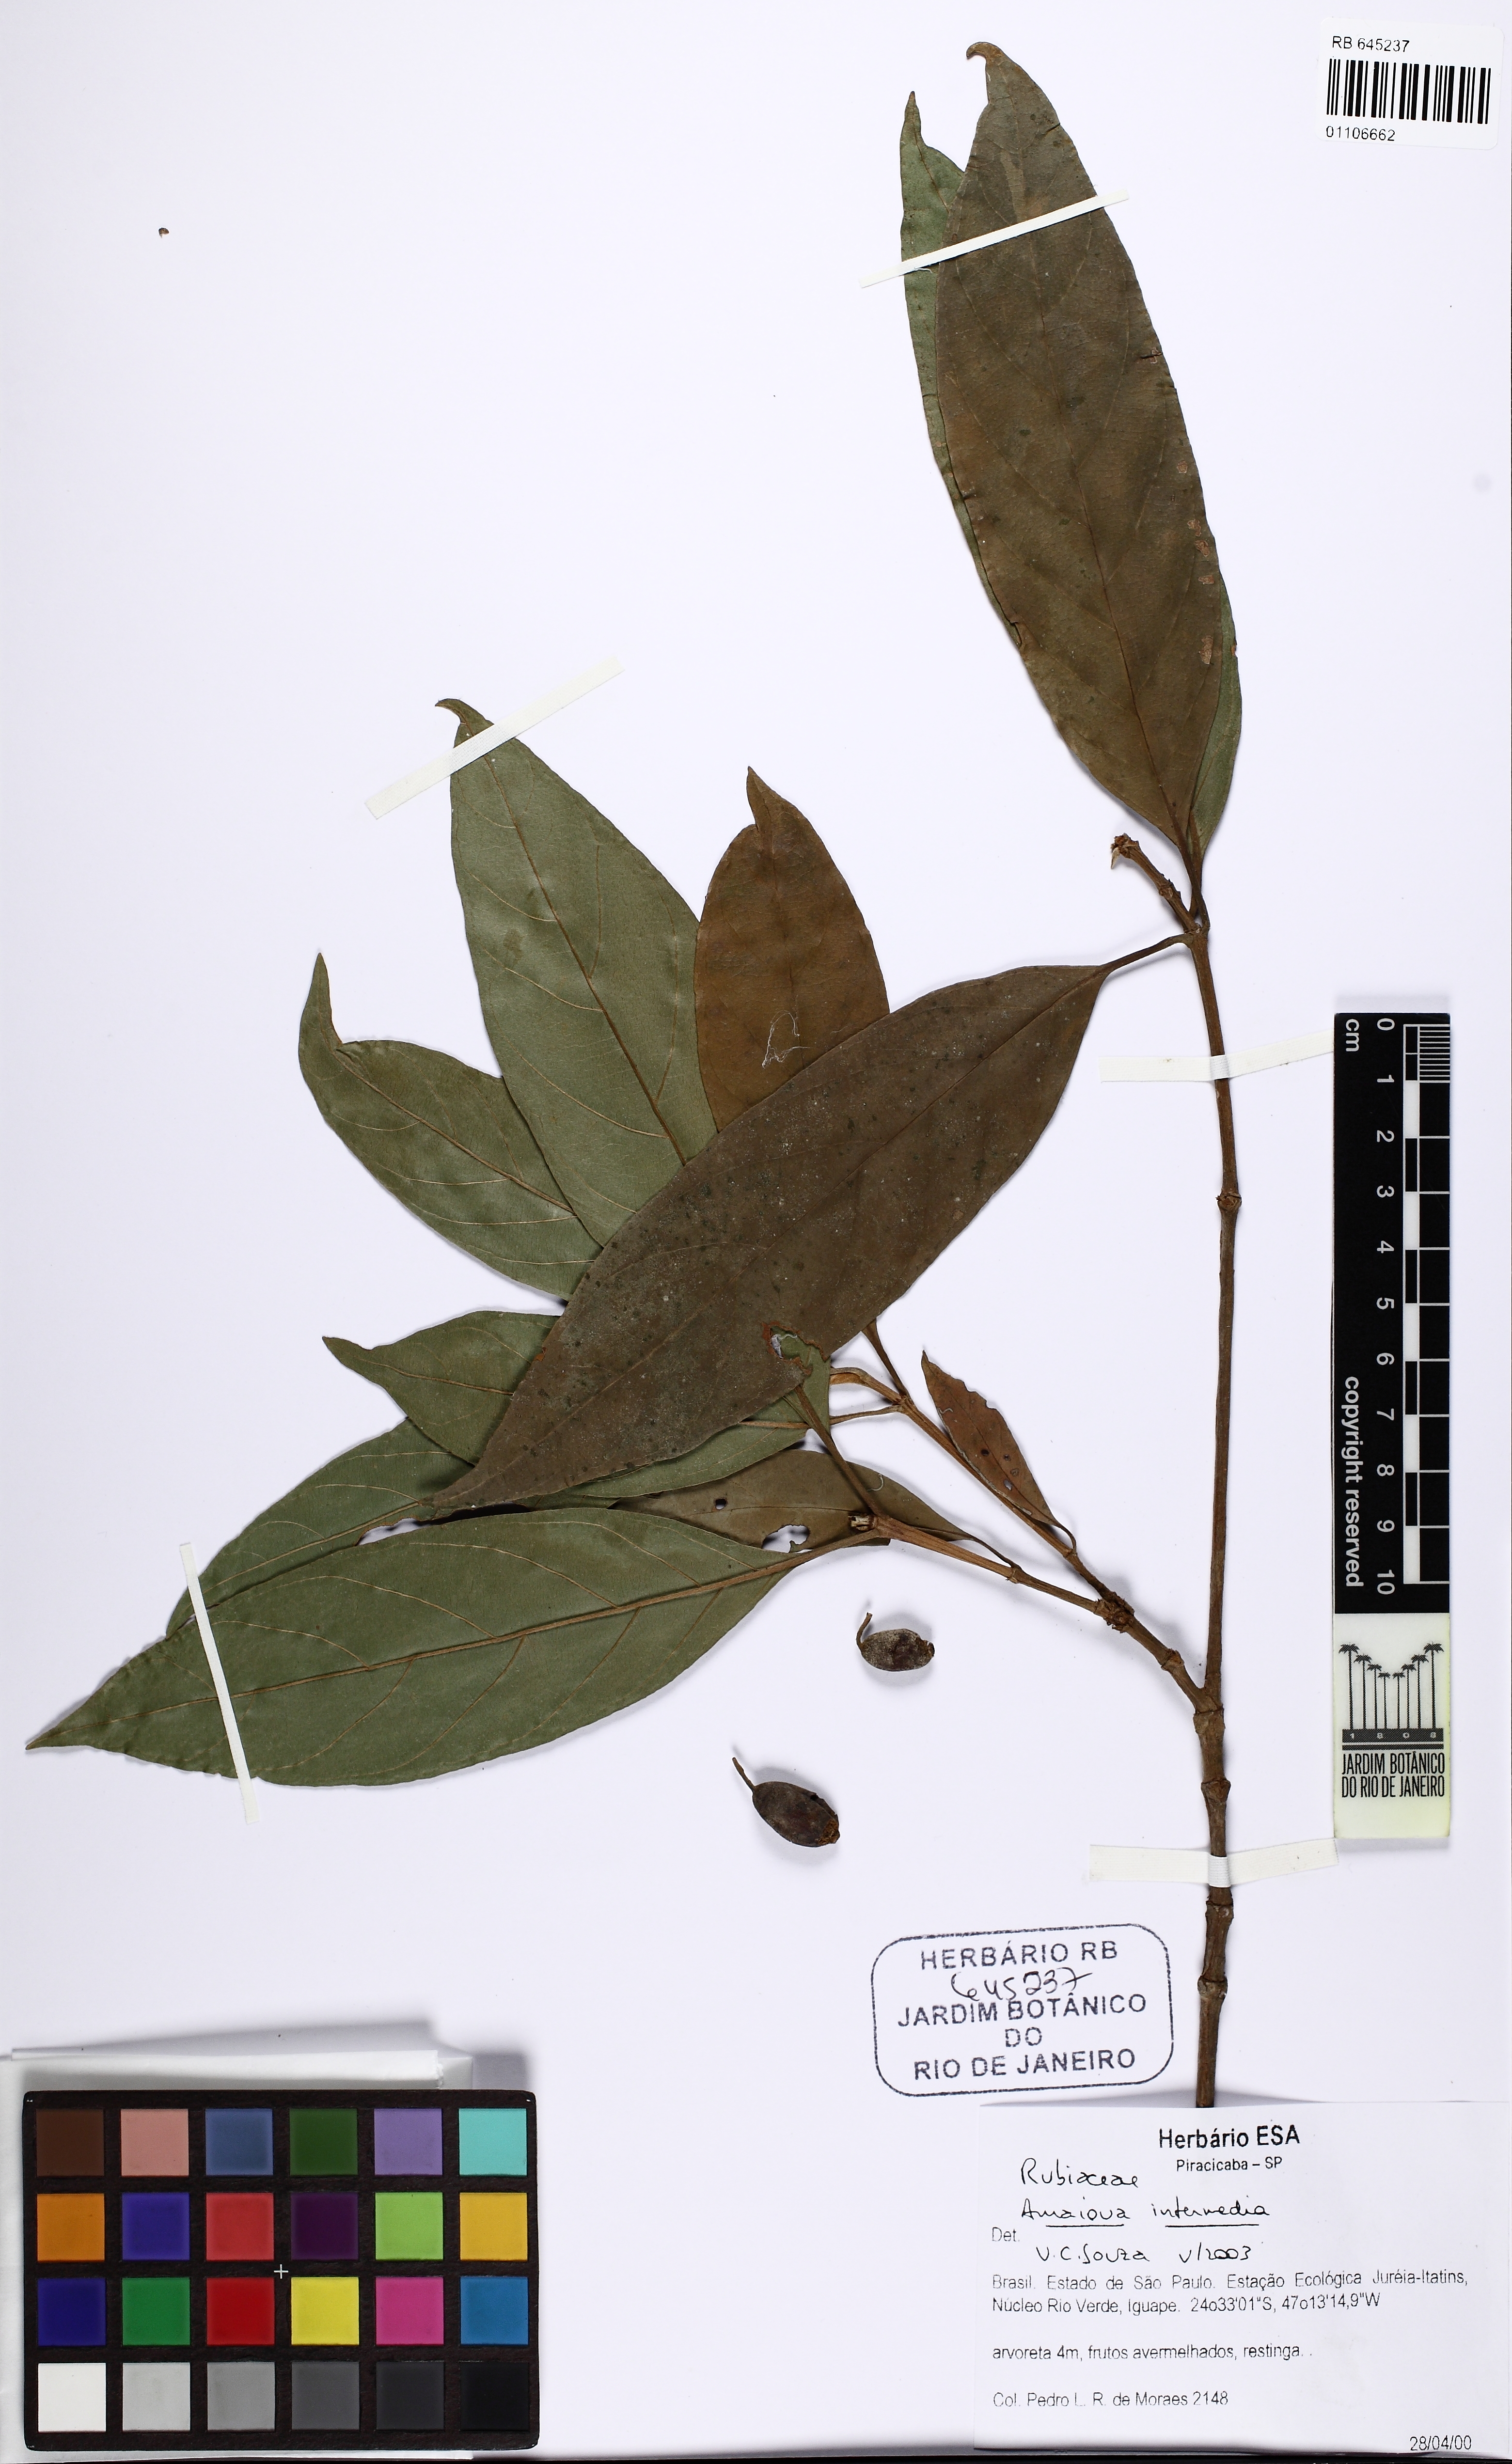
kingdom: Plantae
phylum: Tracheophyta
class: Magnoliopsida
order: Gentianales
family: Rubiaceae
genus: Amaioua
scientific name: Amaioua intermedia
